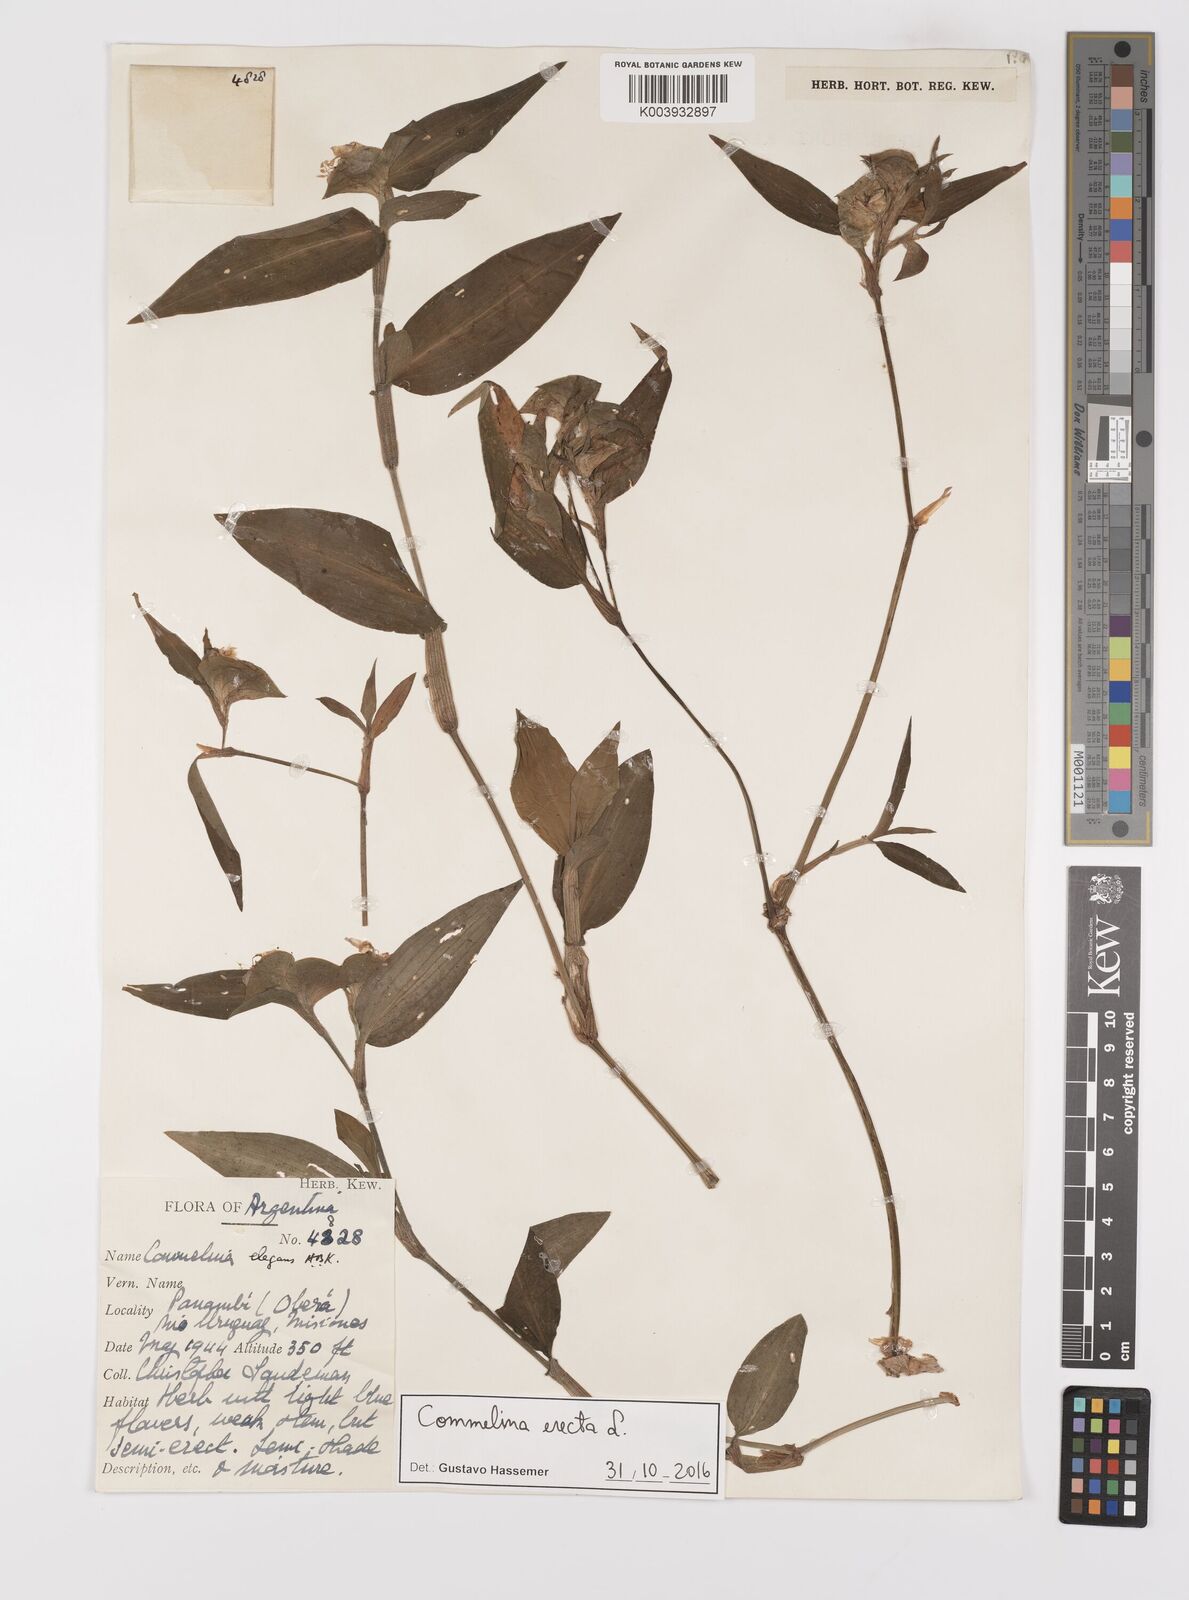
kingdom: Plantae
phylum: Tracheophyta
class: Liliopsida
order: Commelinales
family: Commelinaceae
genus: Commelina
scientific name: Commelina erecta
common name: Blousel blommetjie
